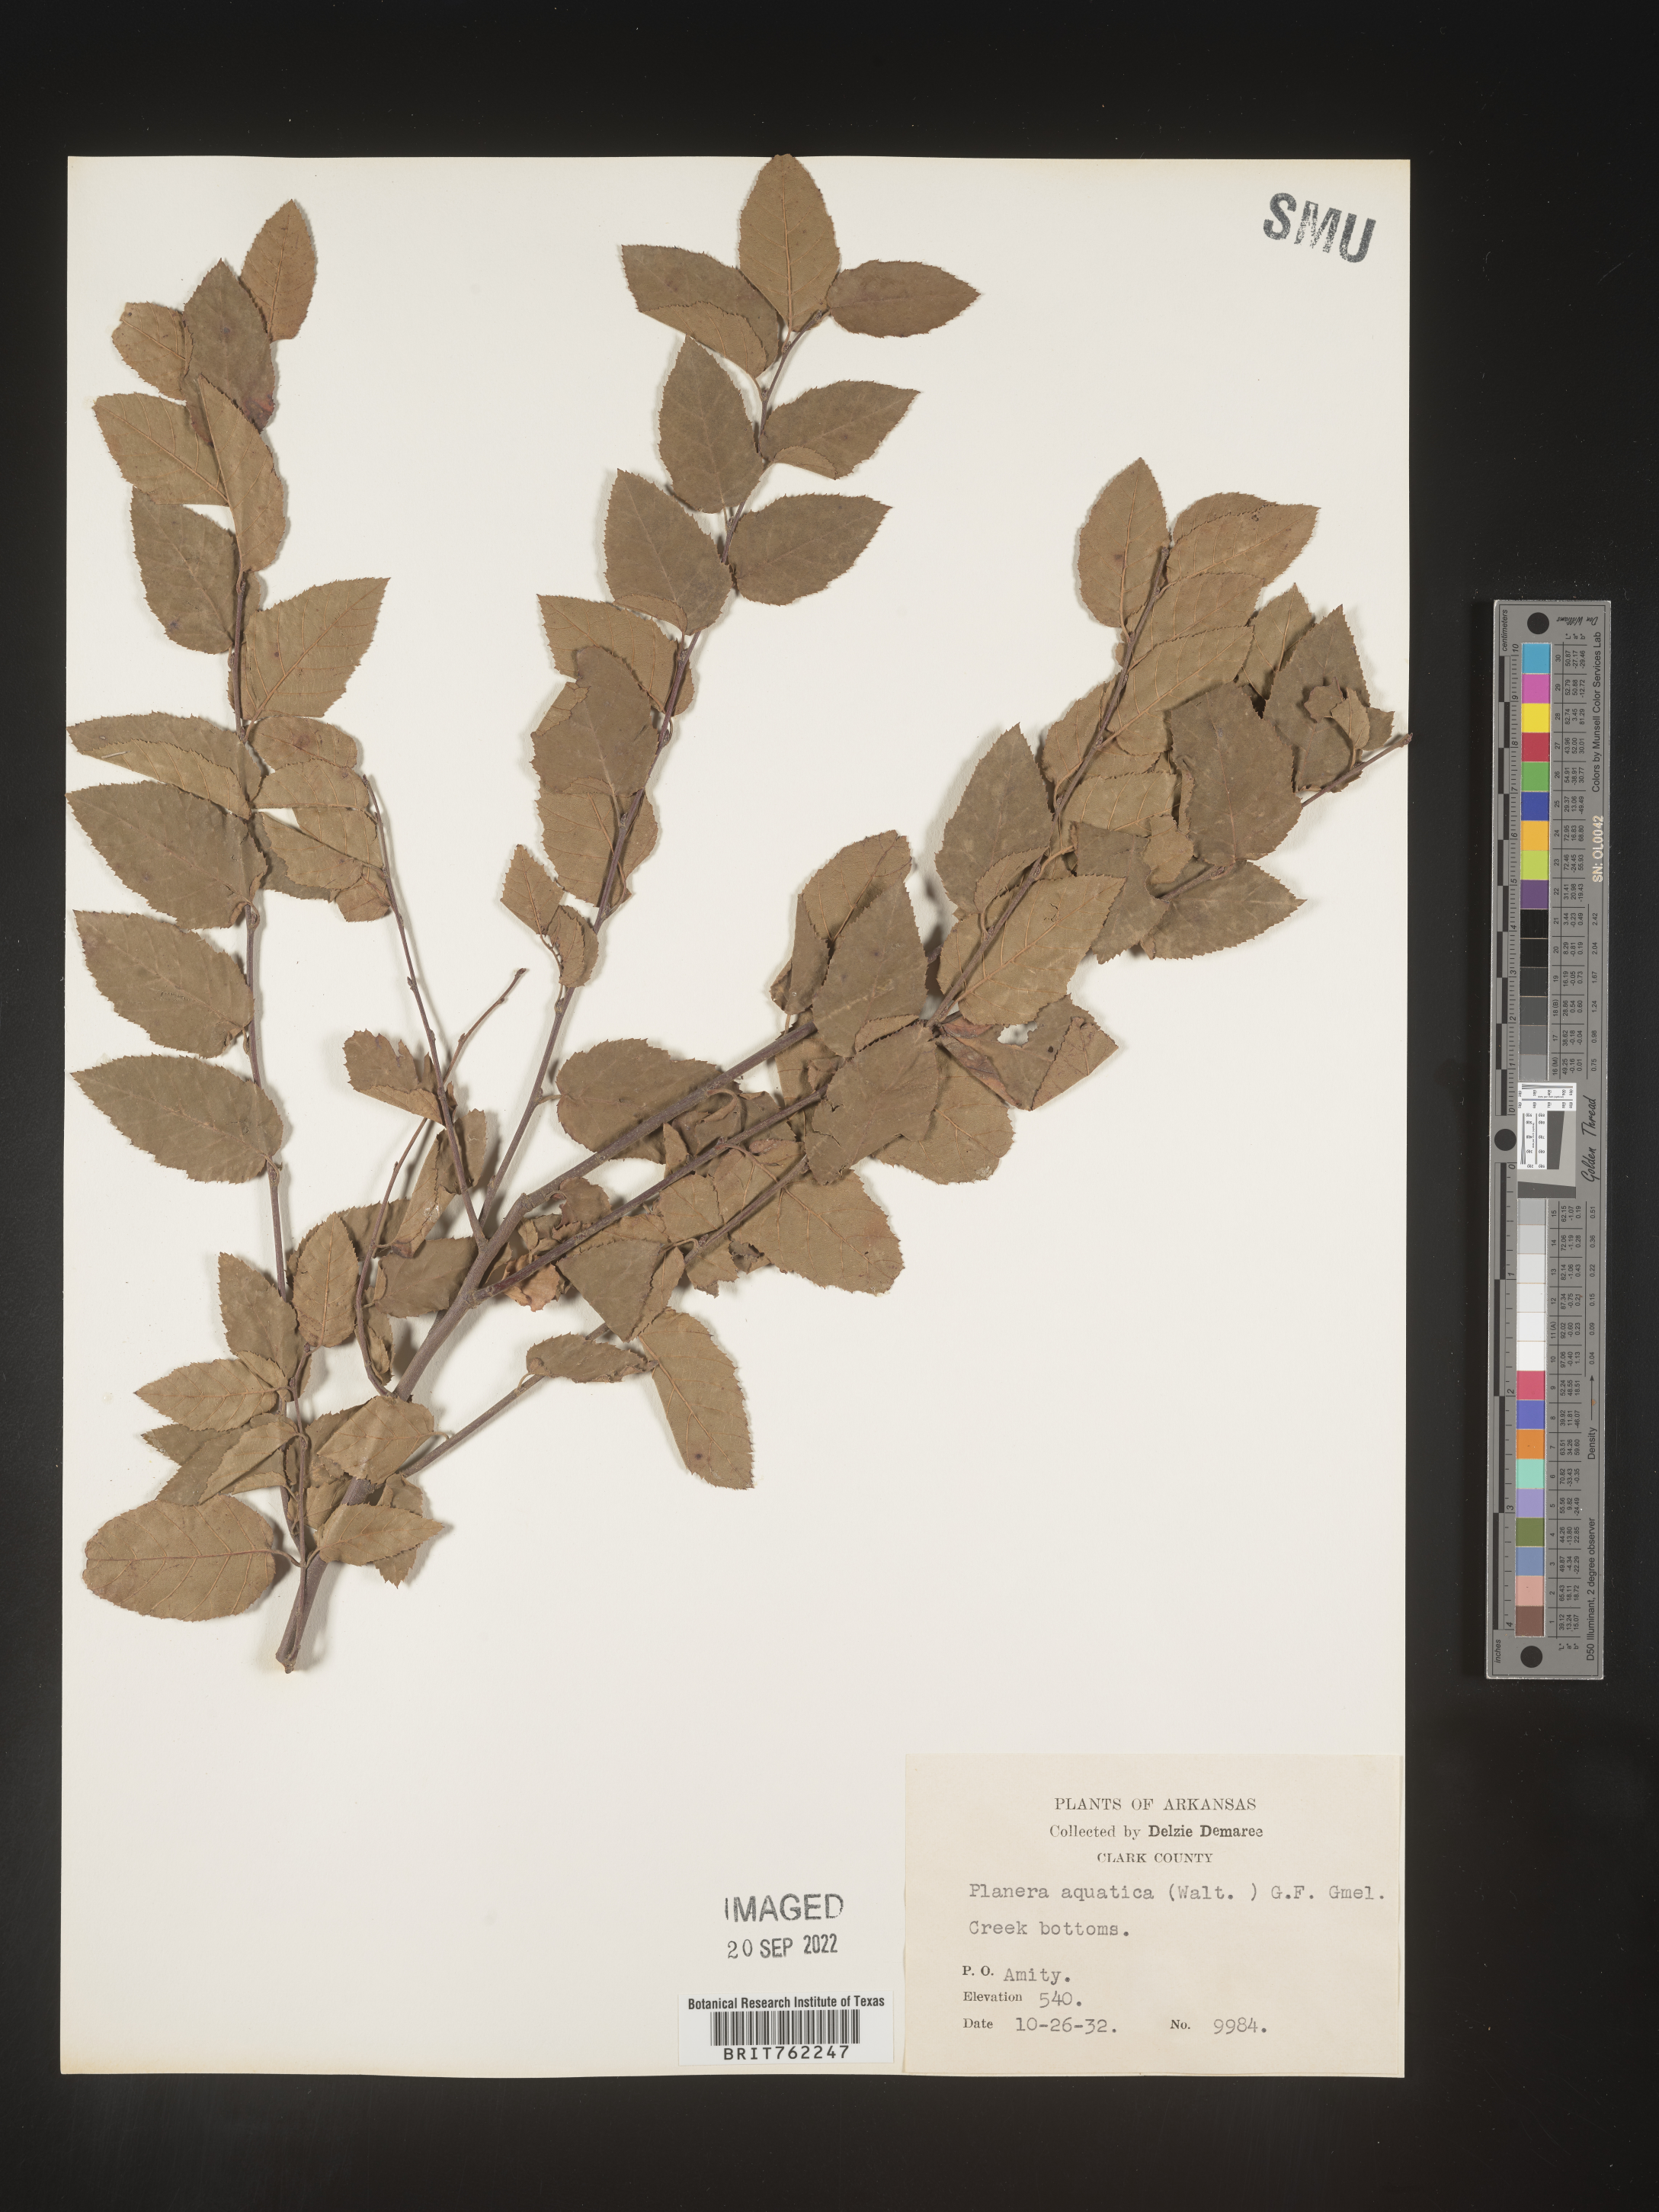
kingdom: Plantae
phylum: Tracheophyta
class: Magnoliopsida
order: Fagales
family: Betulaceae
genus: Betula
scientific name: Betula
